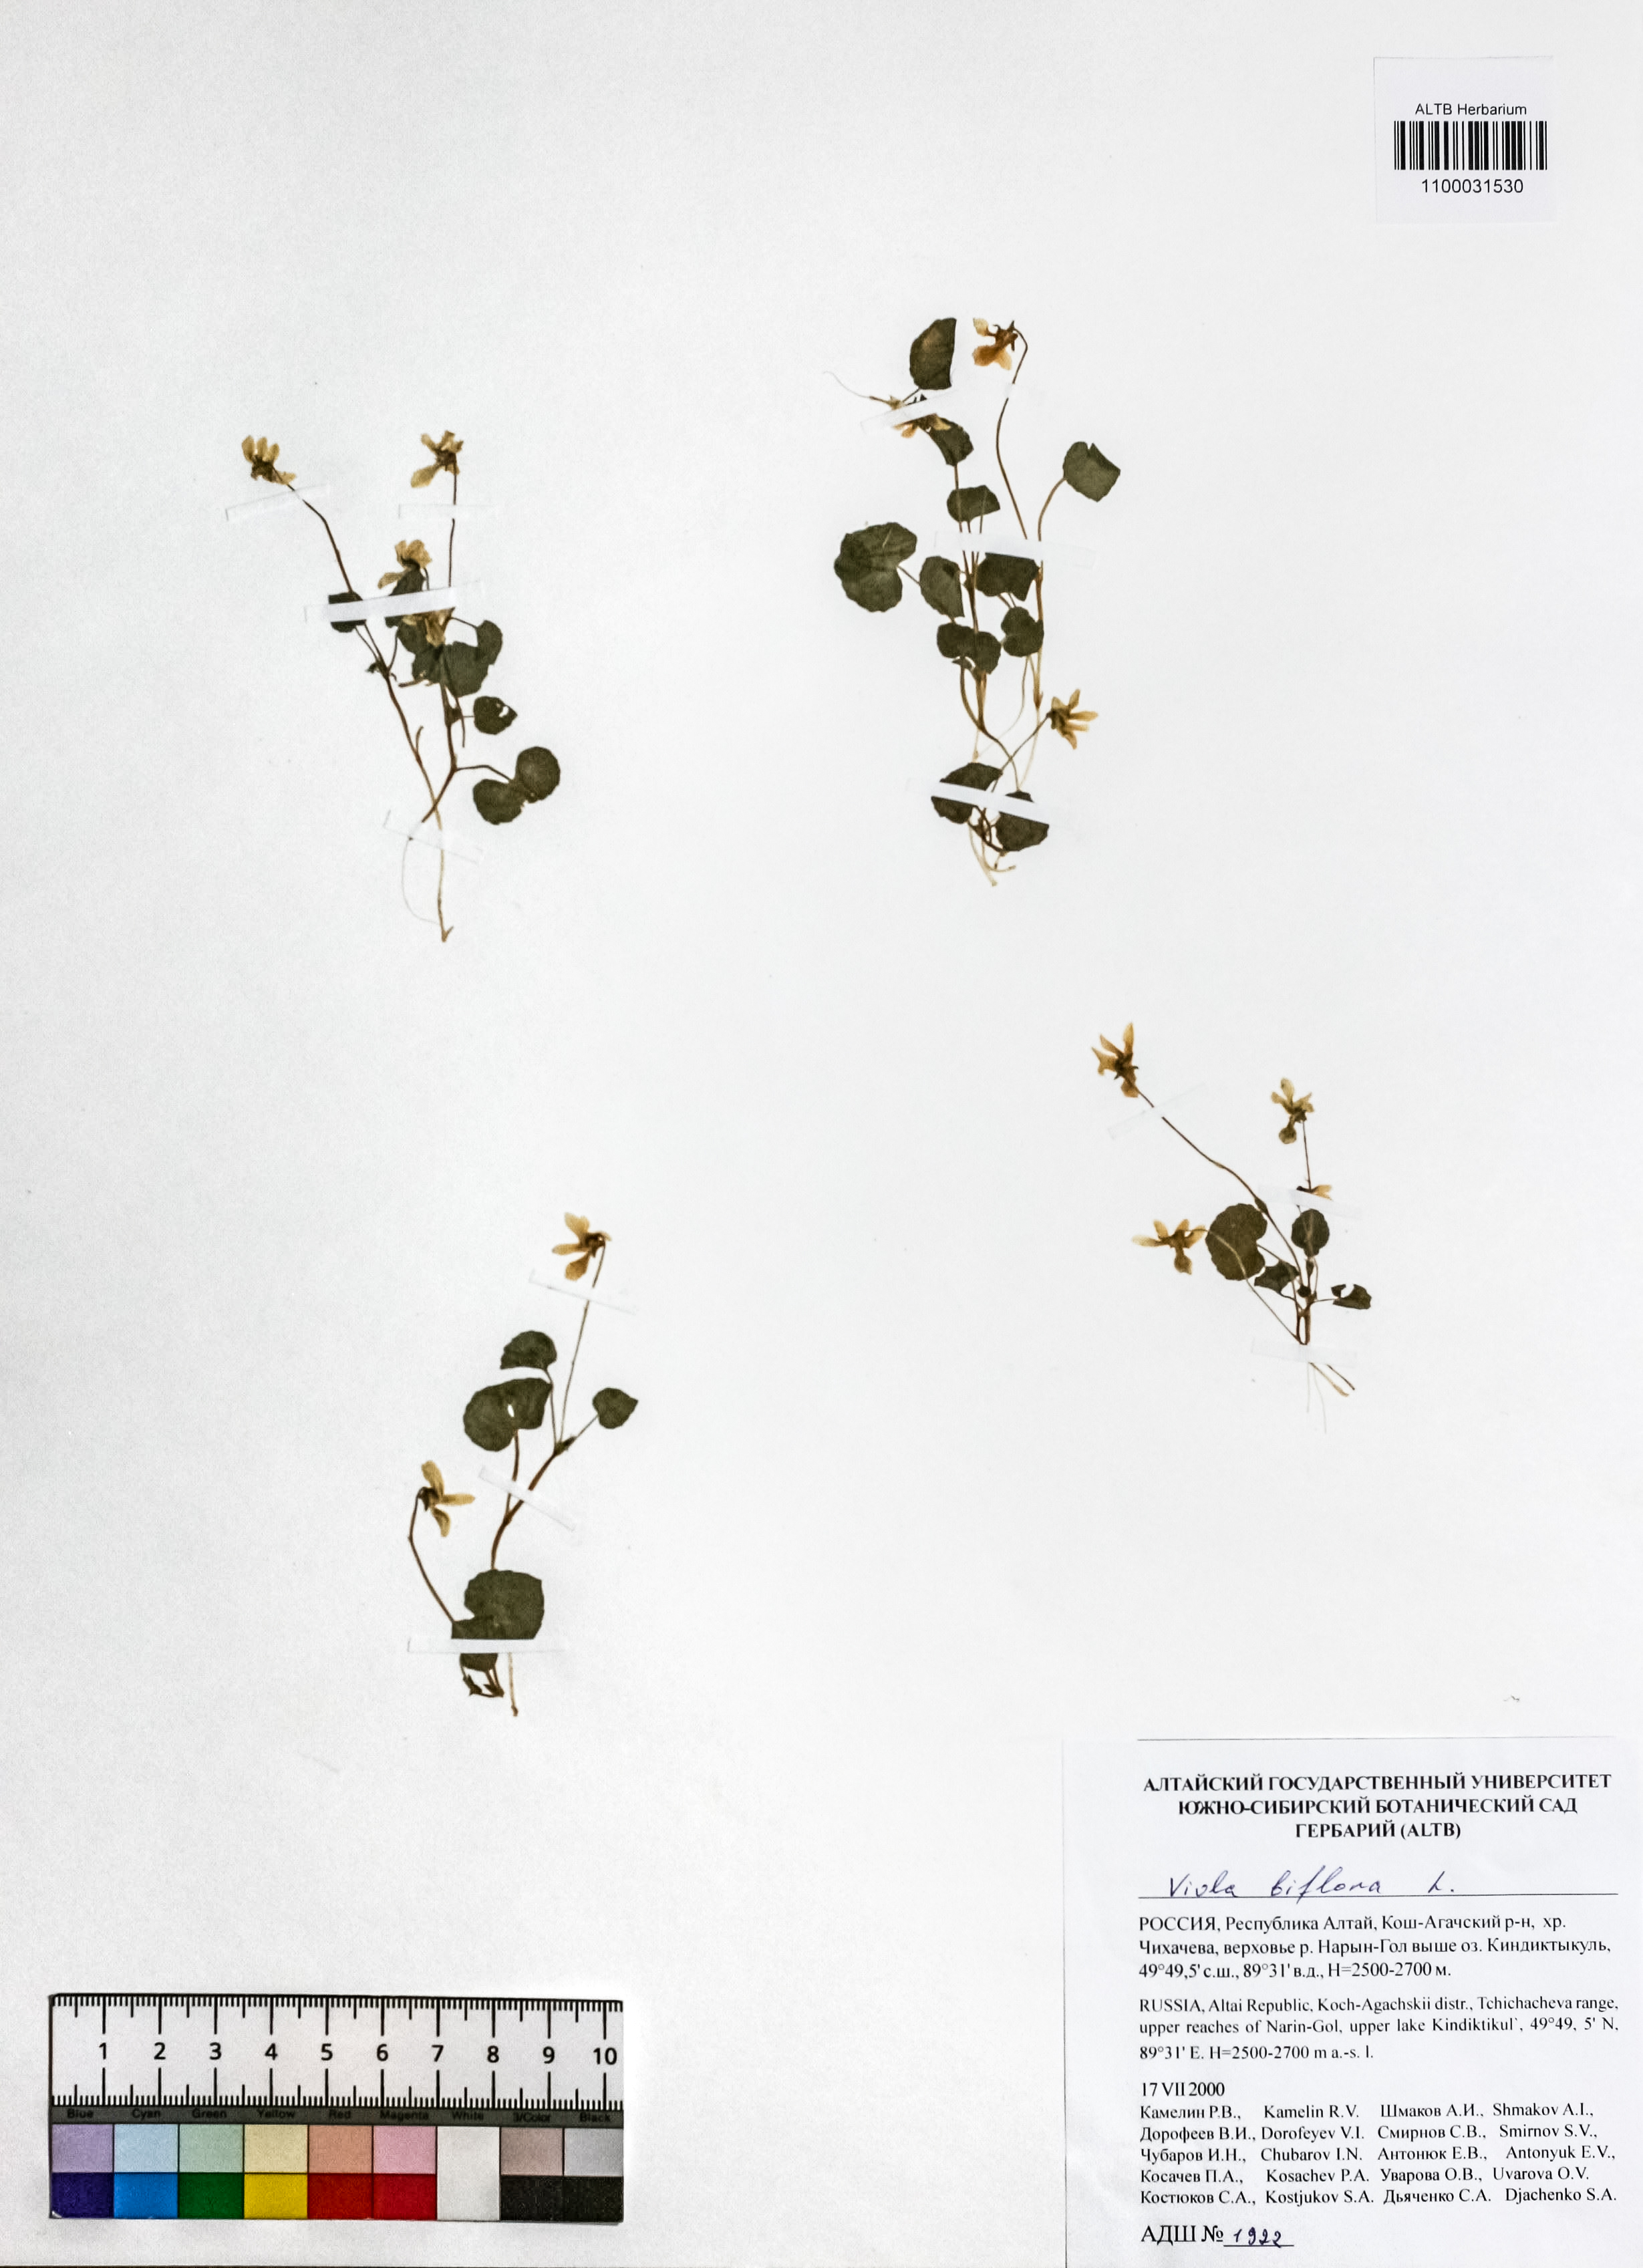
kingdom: Plantae
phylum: Tracheophyta
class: Magnoliopsida
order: Malpighiales
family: Violaceae
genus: Viola
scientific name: Viola biflora
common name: Alpine yellow violet
